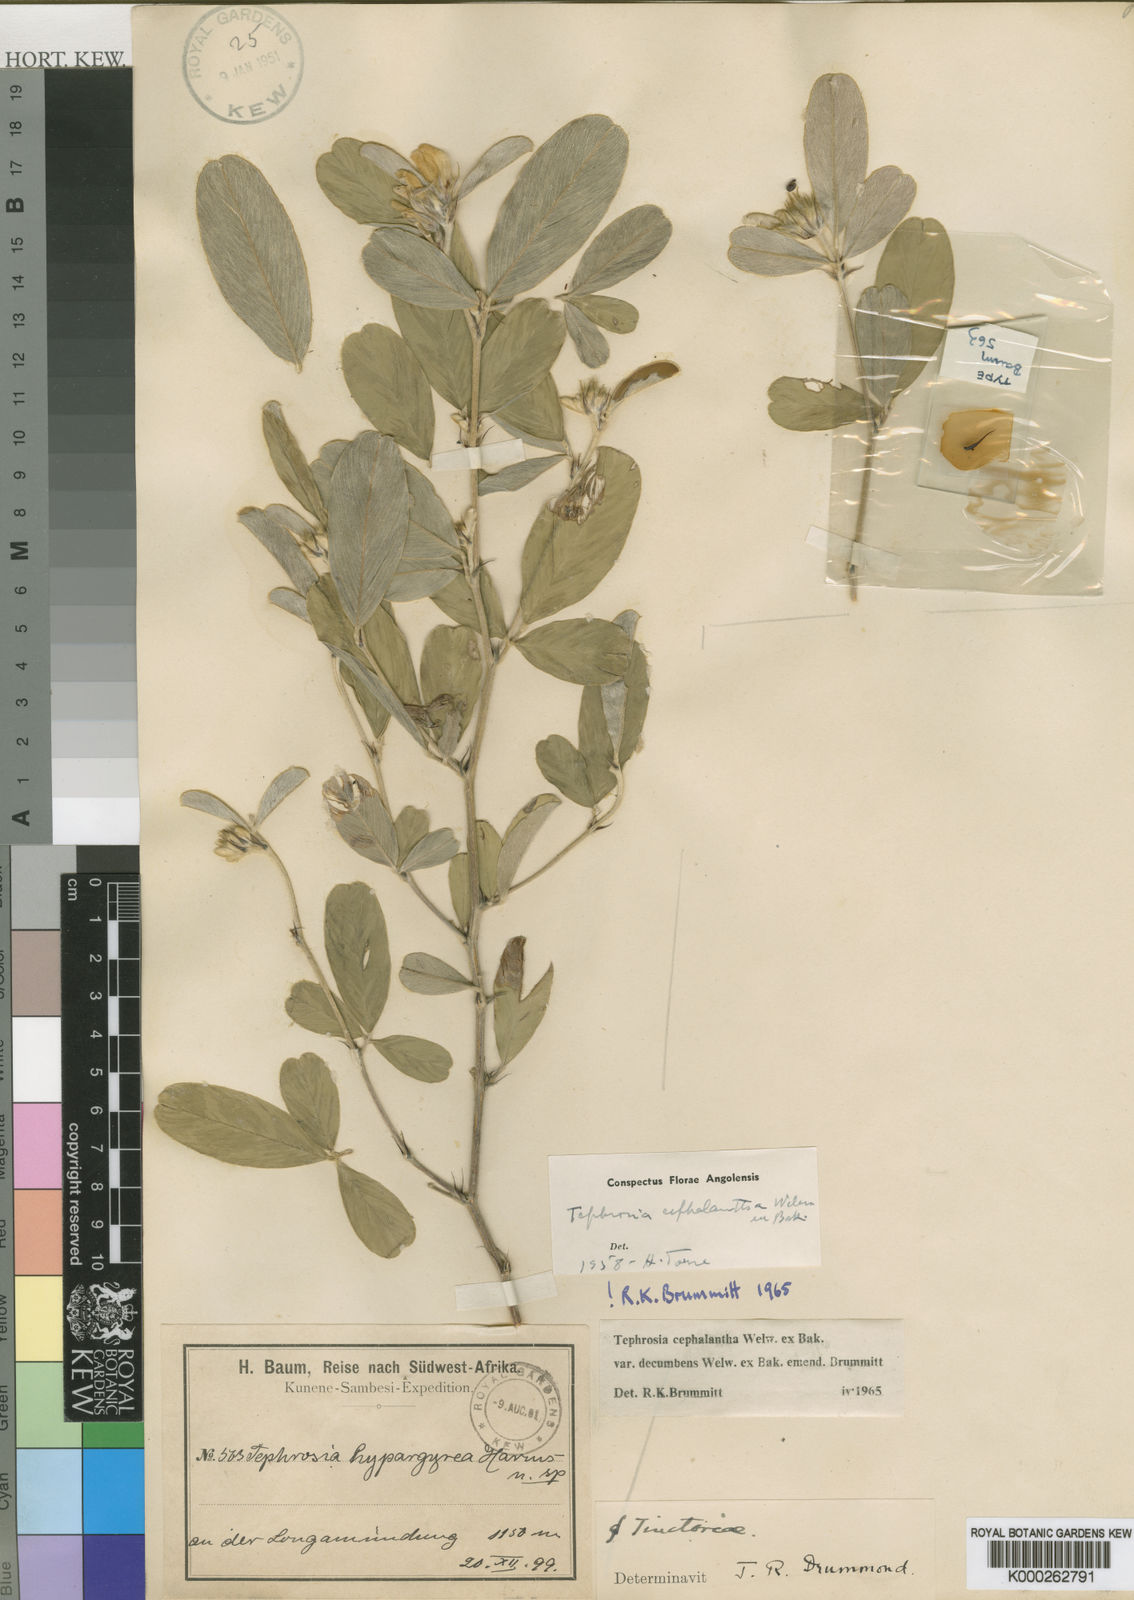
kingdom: Plantae
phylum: Tracheophyta
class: Magnoliopsida
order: Fabales
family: Fabaceae
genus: Tephrosia
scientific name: Tephrosia cephalantha
